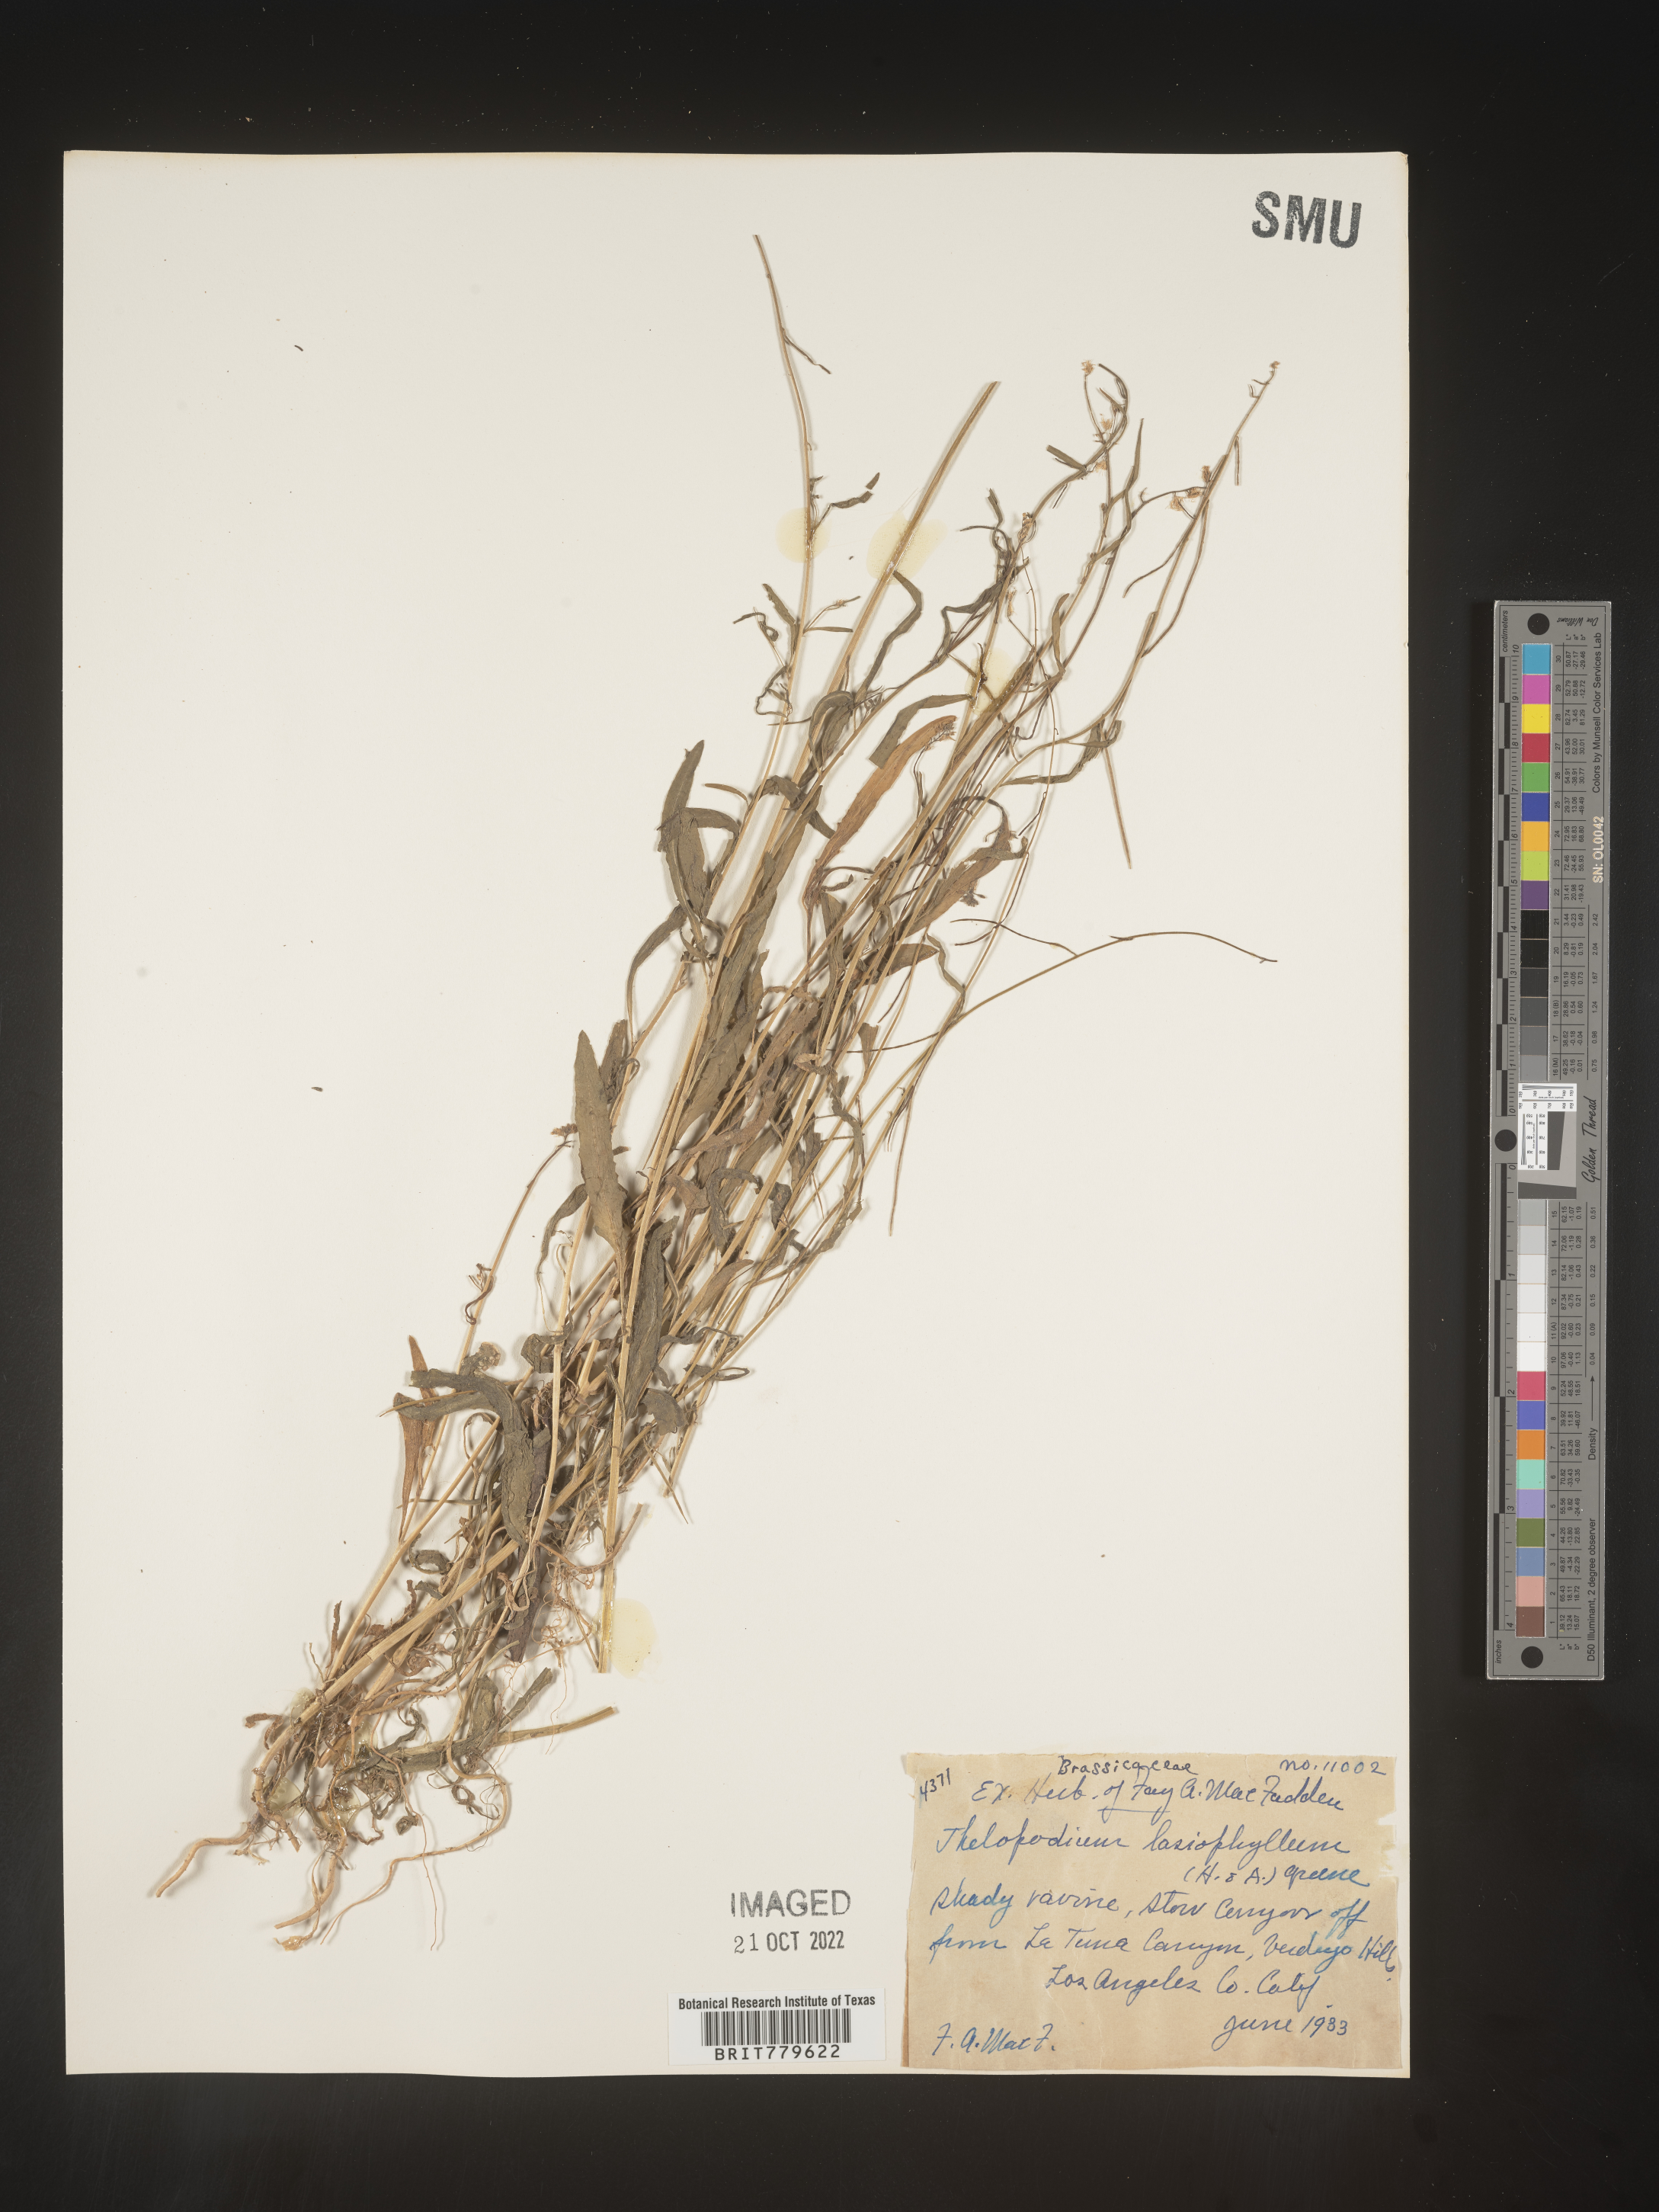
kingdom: Plantae
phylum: Tracheophyta
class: Magnoliopsida
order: Brassicales
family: Brassicaceae
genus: Thelypodium
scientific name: Thelypodium
